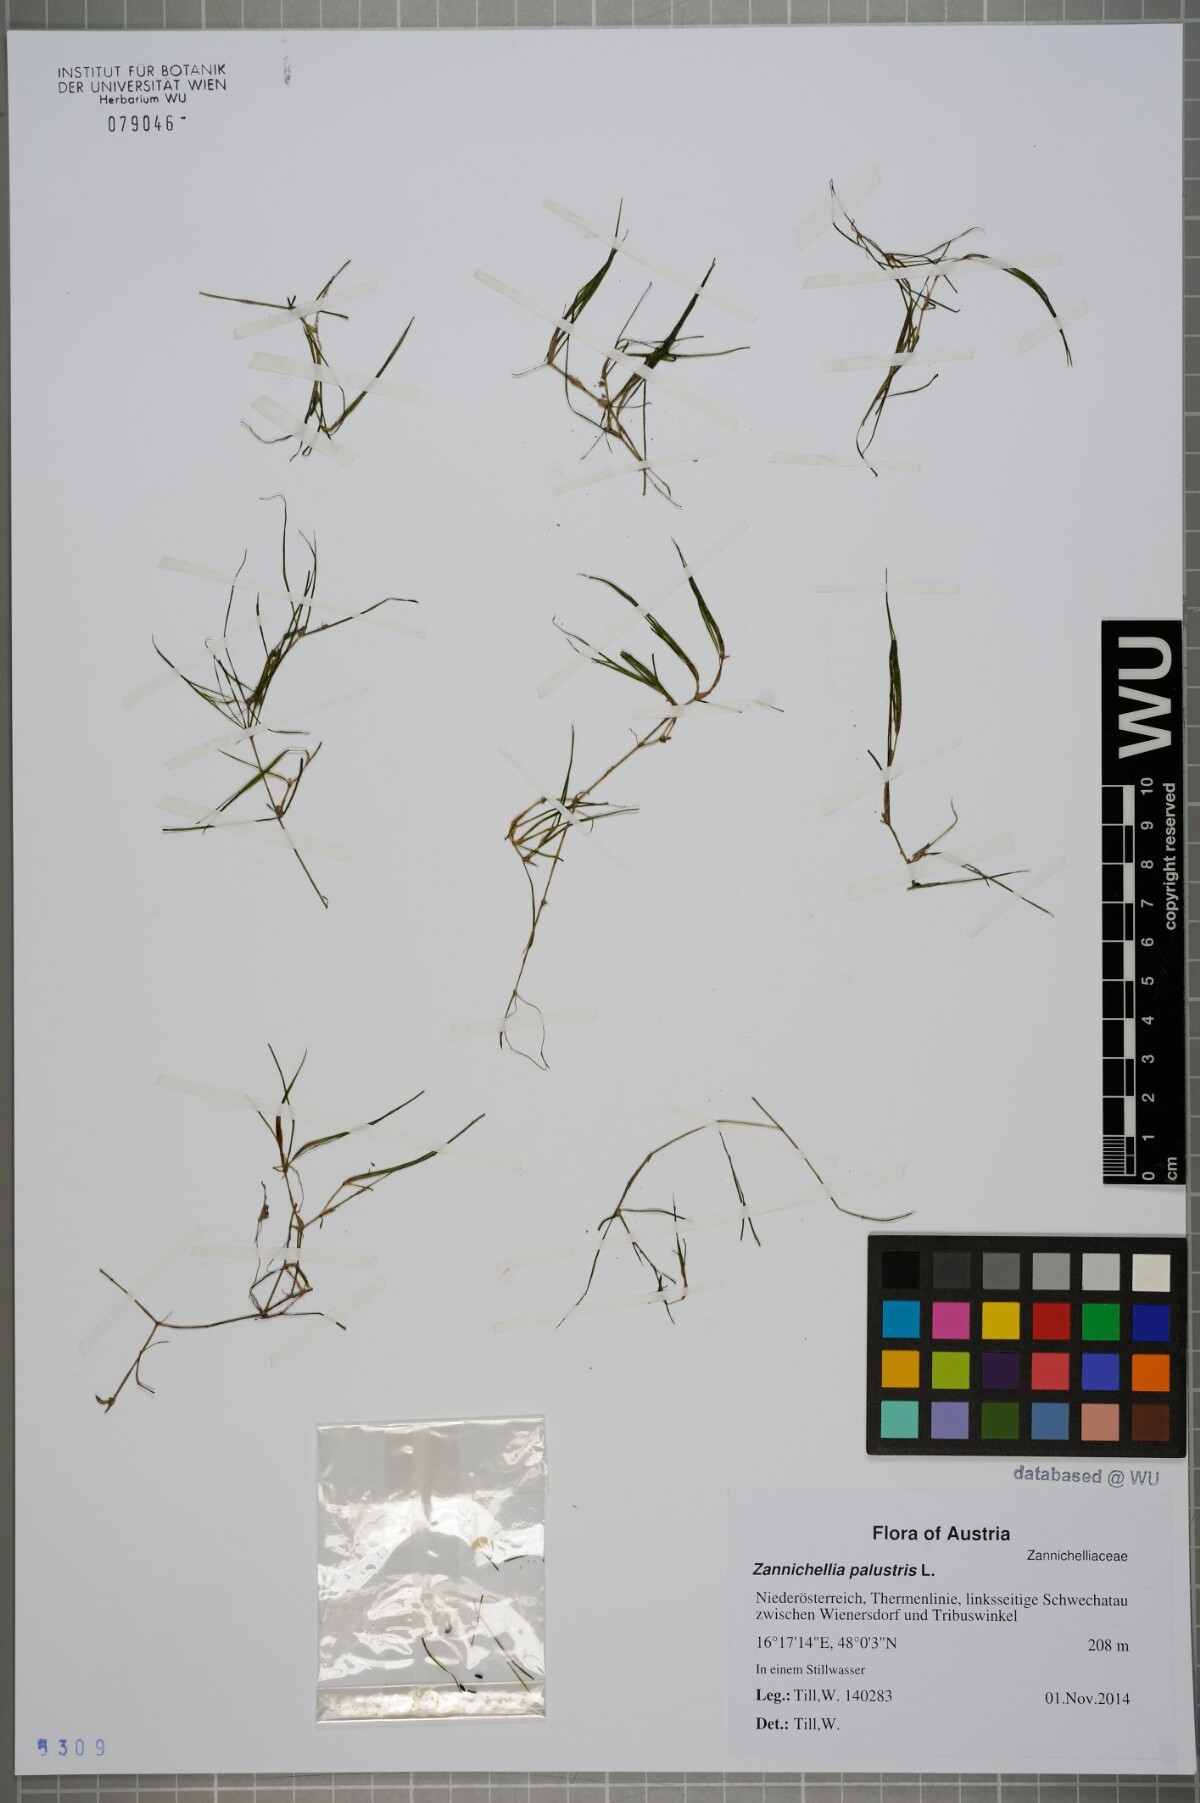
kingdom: Plantae
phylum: Tracheophyta
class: Liliopsida
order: Alismatales
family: Potamogetonaceae
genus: Zannichellia
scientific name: Zannichellia palustris
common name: Horned pondweed
